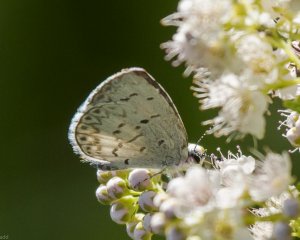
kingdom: Animalia
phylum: Arthropoda
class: Insecta
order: Lepidoptera
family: Lycaenidae
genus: Cyaniris
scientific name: Cyaniris neglecta
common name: Summer Azure
